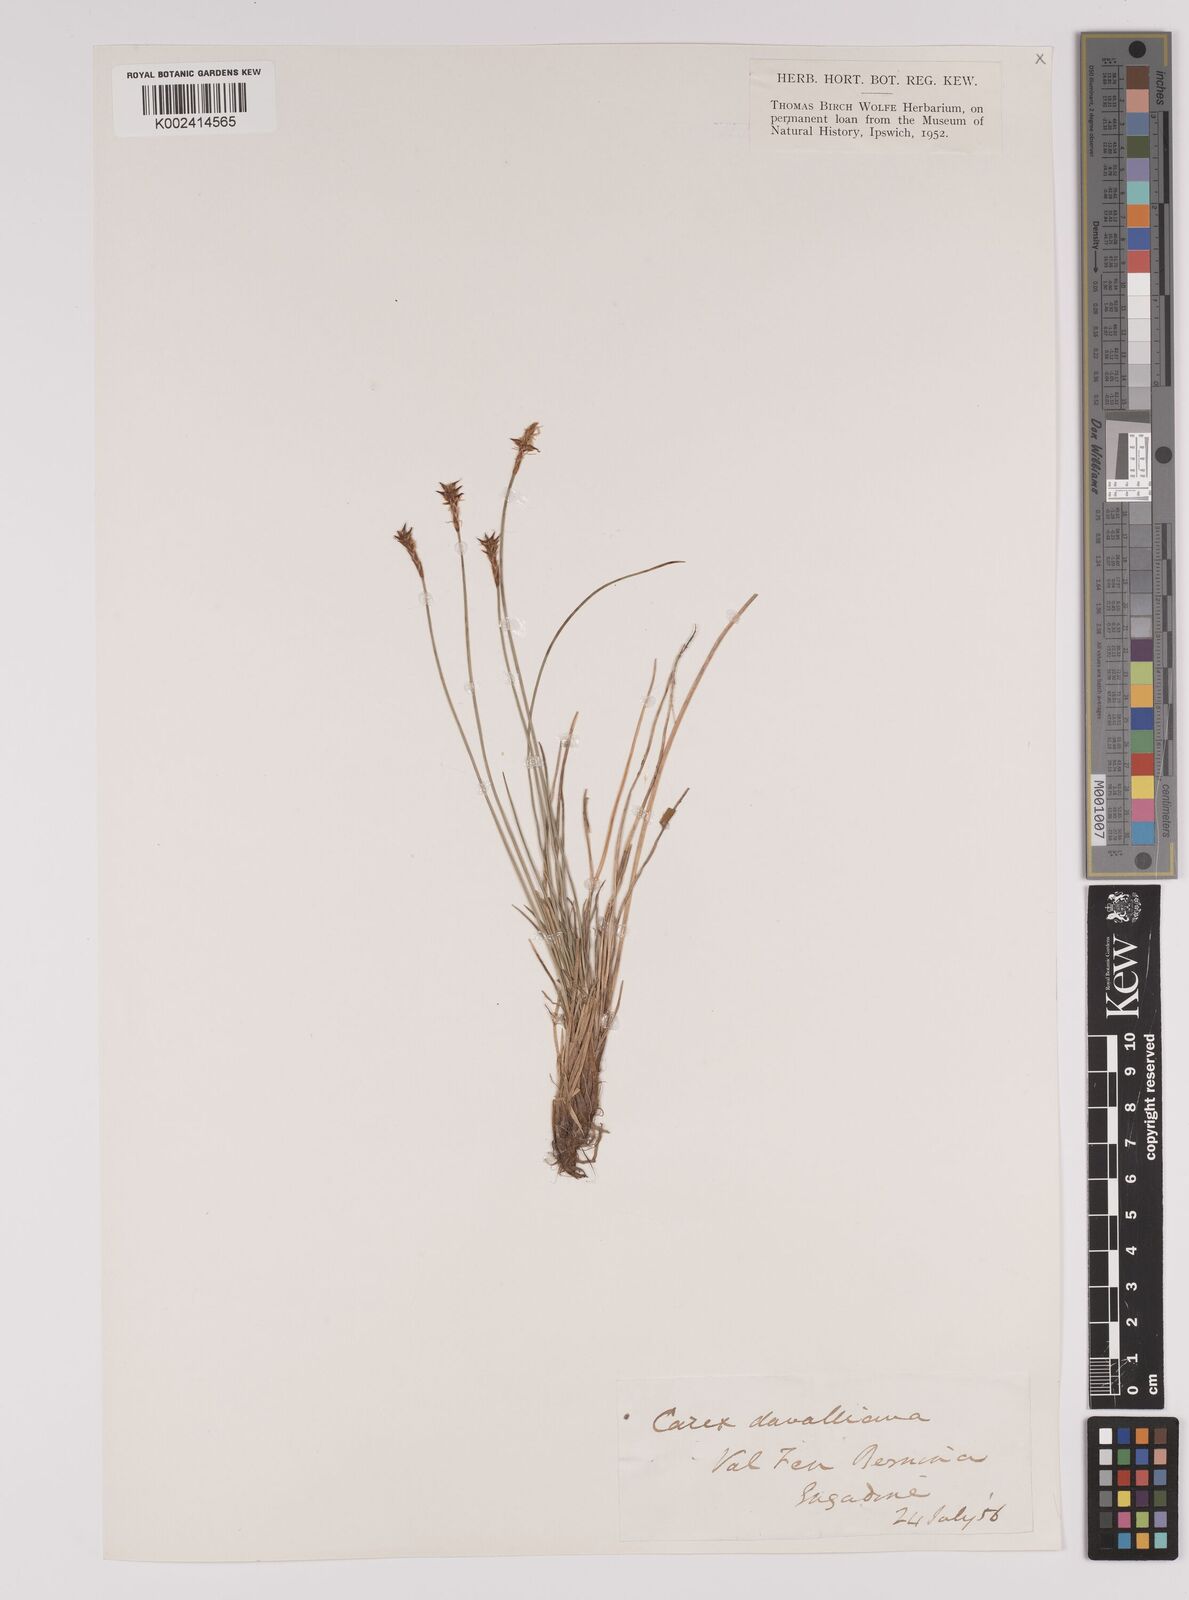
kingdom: Plantae
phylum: Tracheophyta
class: Liliopsida
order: Poales
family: Cyperaceae
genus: Carex
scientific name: Carex davalliana
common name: Davall's sedge
